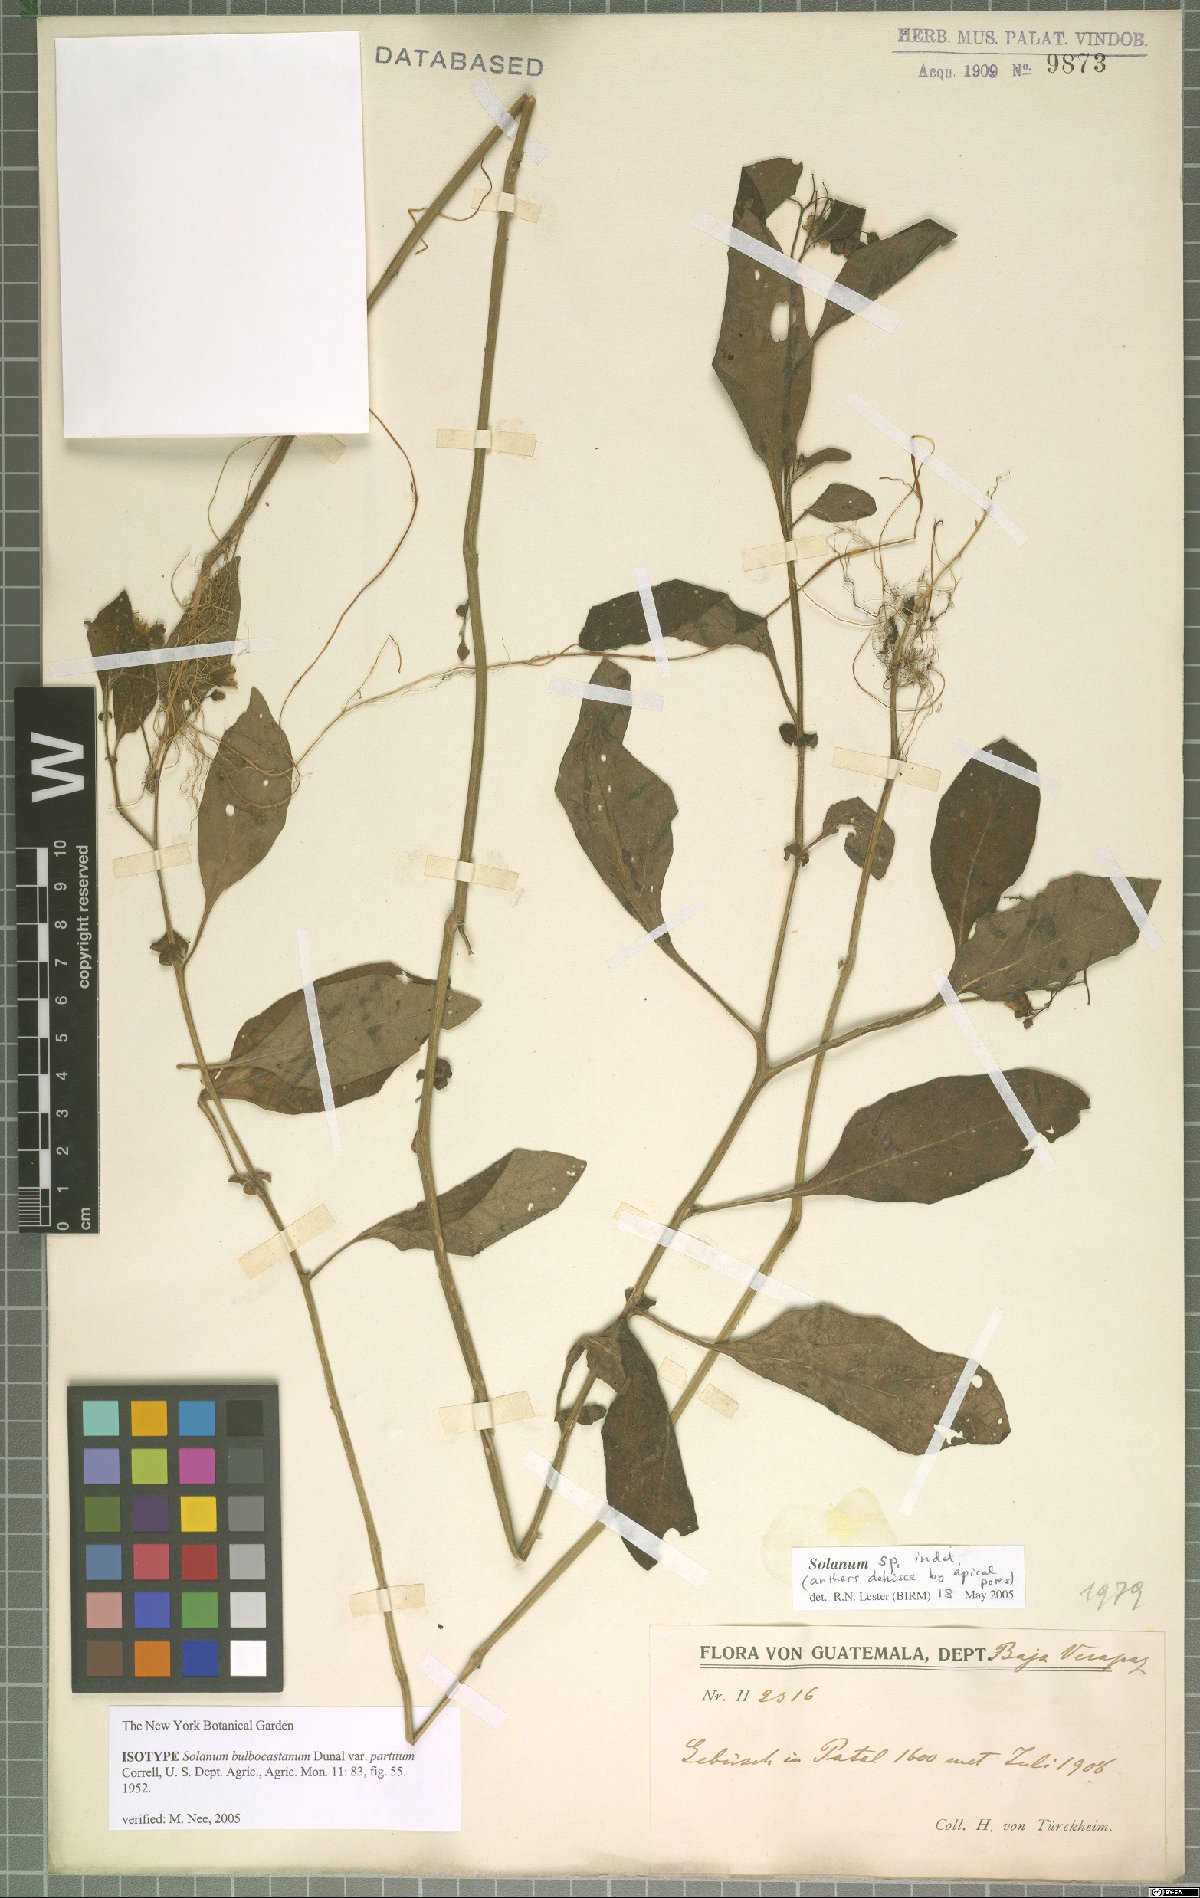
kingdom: Plantae
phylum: Tracheophyta
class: Magnoliopsida
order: Solanales
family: Solanaceae
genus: Solanum
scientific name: Solanum bulbocastanum
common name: Ornamental nightshade
